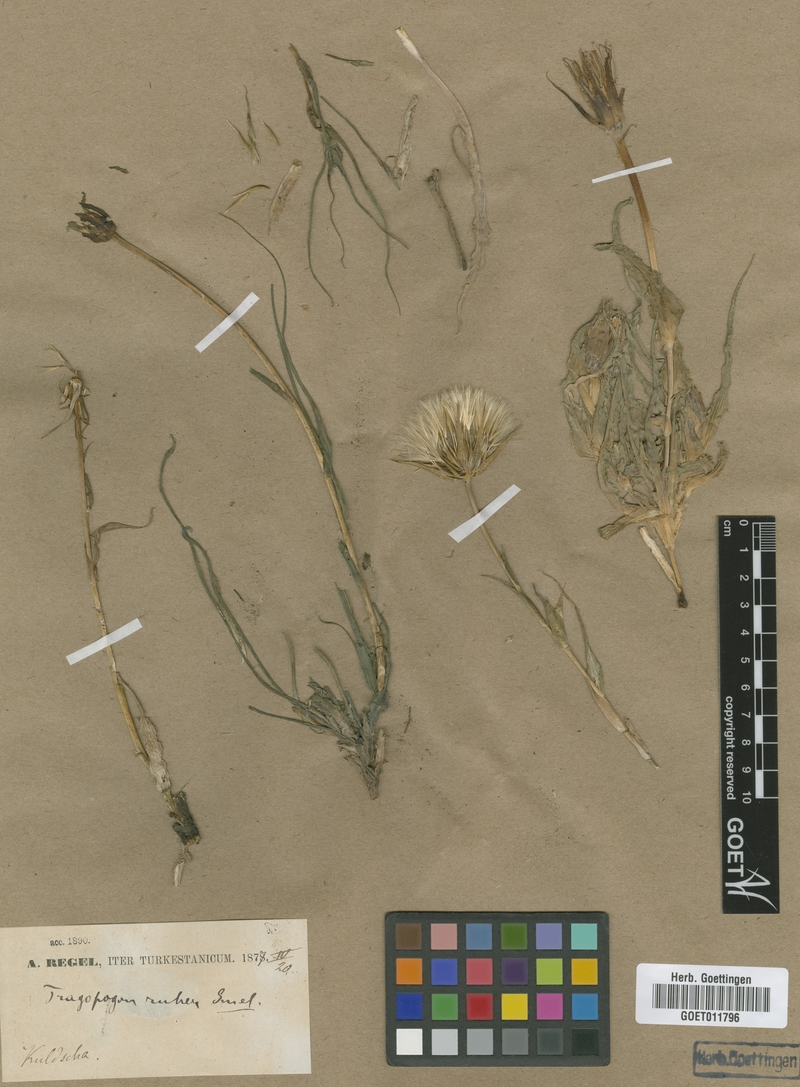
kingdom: Plantae
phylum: Tracheophyta
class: Magnoliopsida
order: Asterales
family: Asteraceae
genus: Tragopogon
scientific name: Tragopogon ruber
